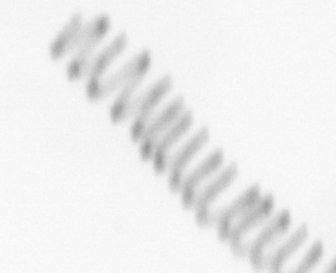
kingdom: Chromista
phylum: Ochrophyta
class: Bacillariophyceae
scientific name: Bacillariophyceae
